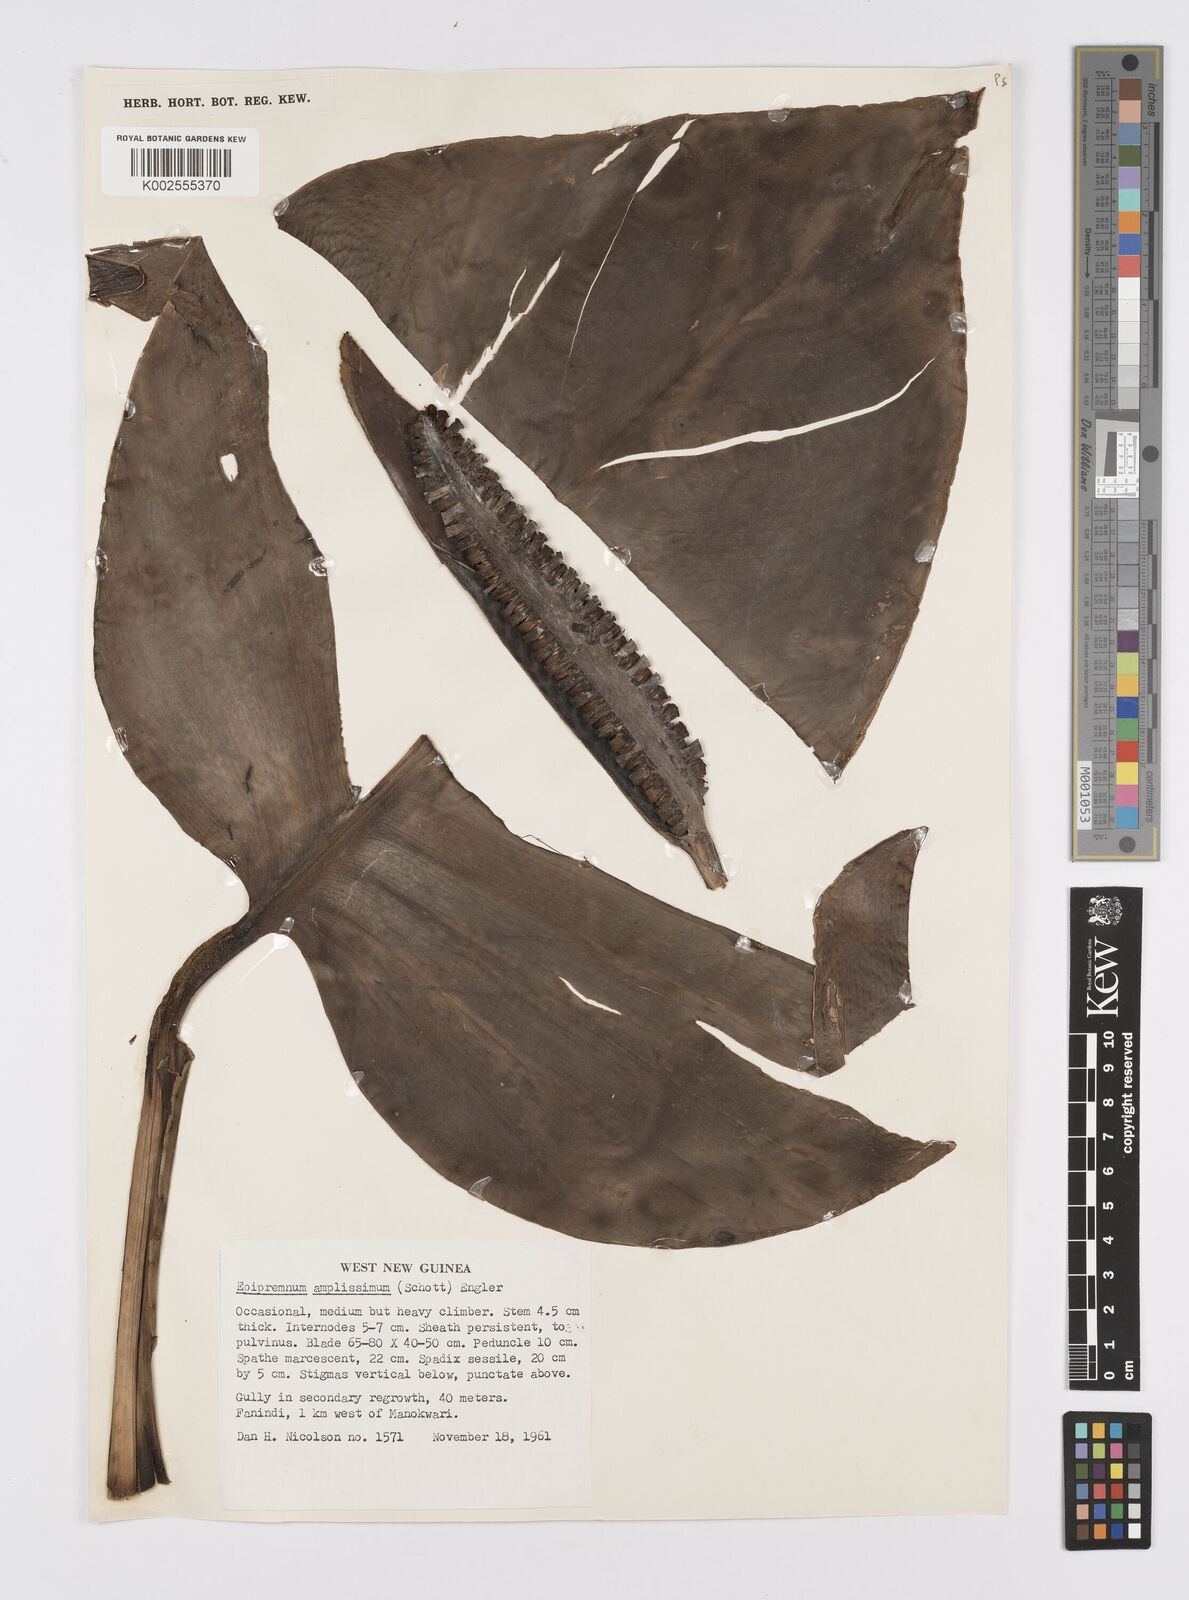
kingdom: Plantae
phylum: Tracheophyta
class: Liliopsida
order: Alismatales
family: Araceae
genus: Epipremnum
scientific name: Epipremnum amplissimum
